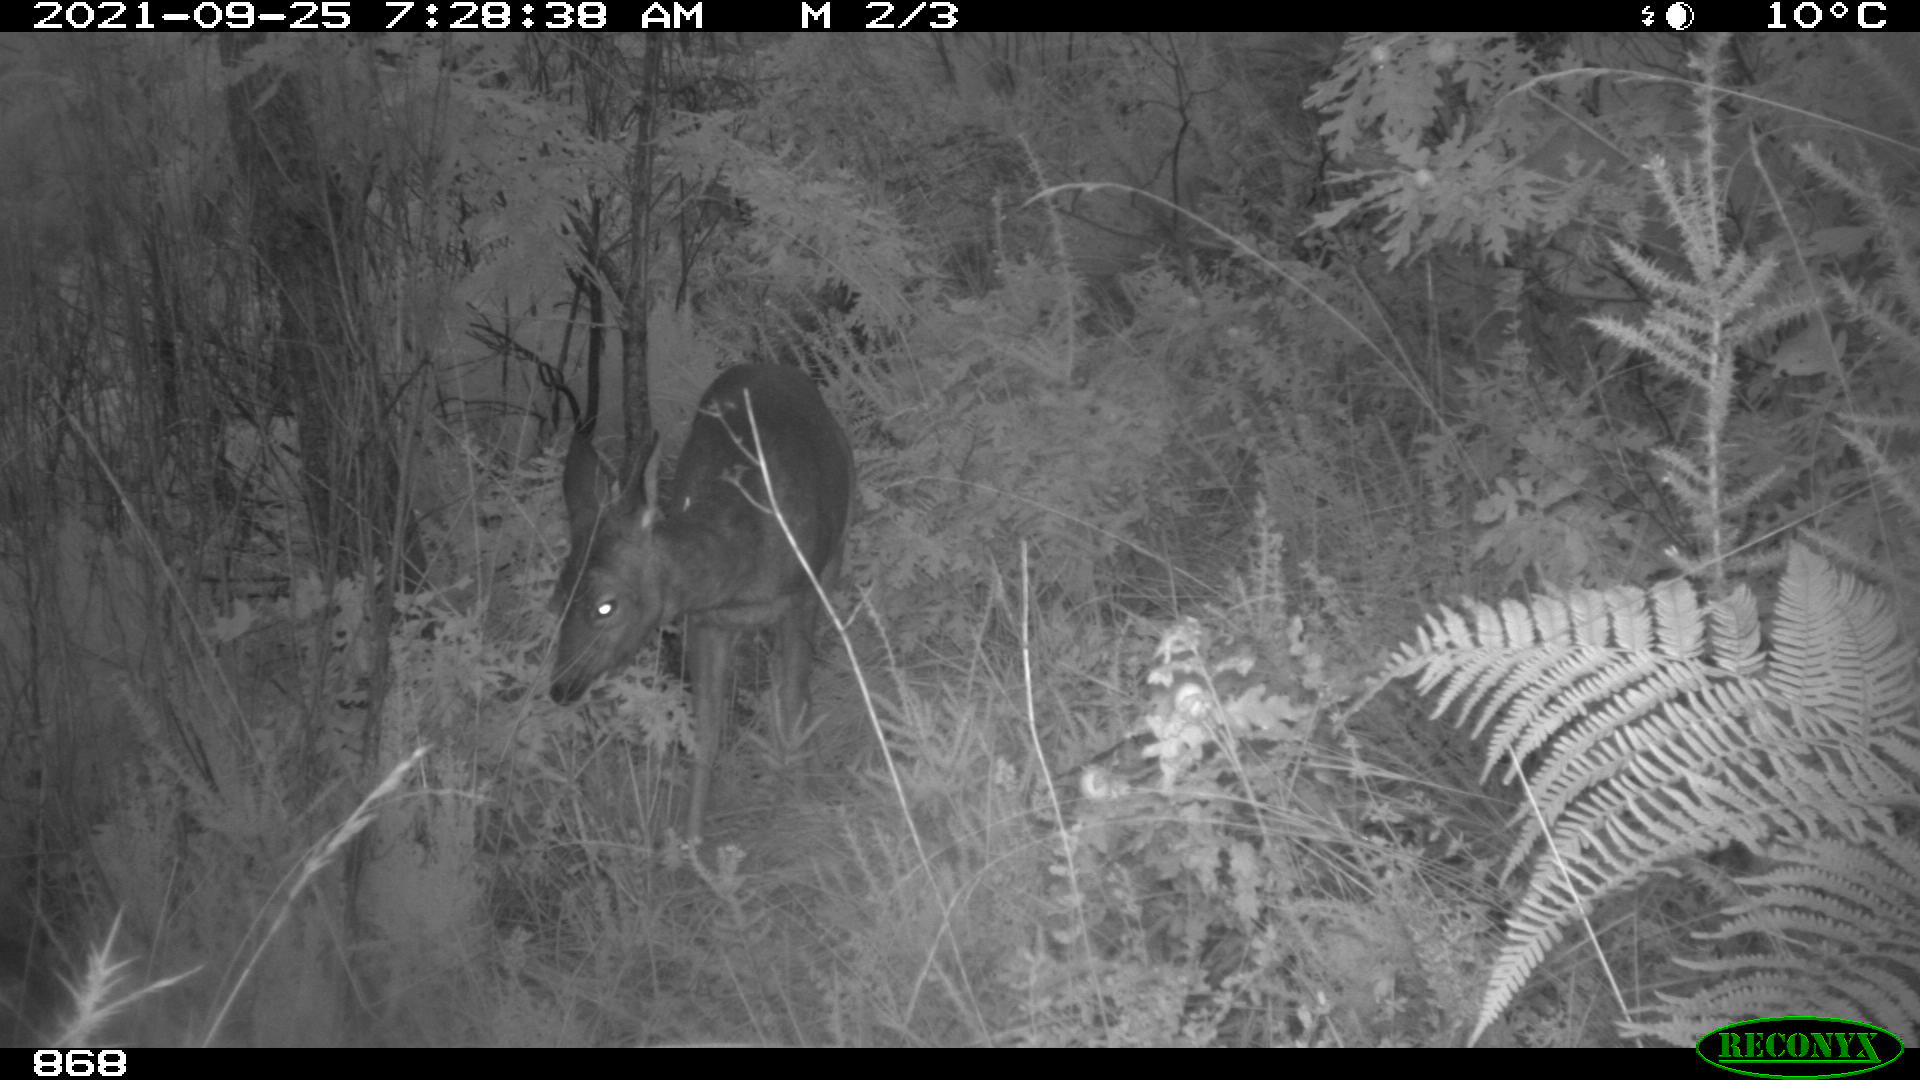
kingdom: Animalia
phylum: Chordata
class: Mammalia
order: Artiodactyla
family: Cervidae
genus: Capreolus
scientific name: Capreolus capreolus
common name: Western roe deer
